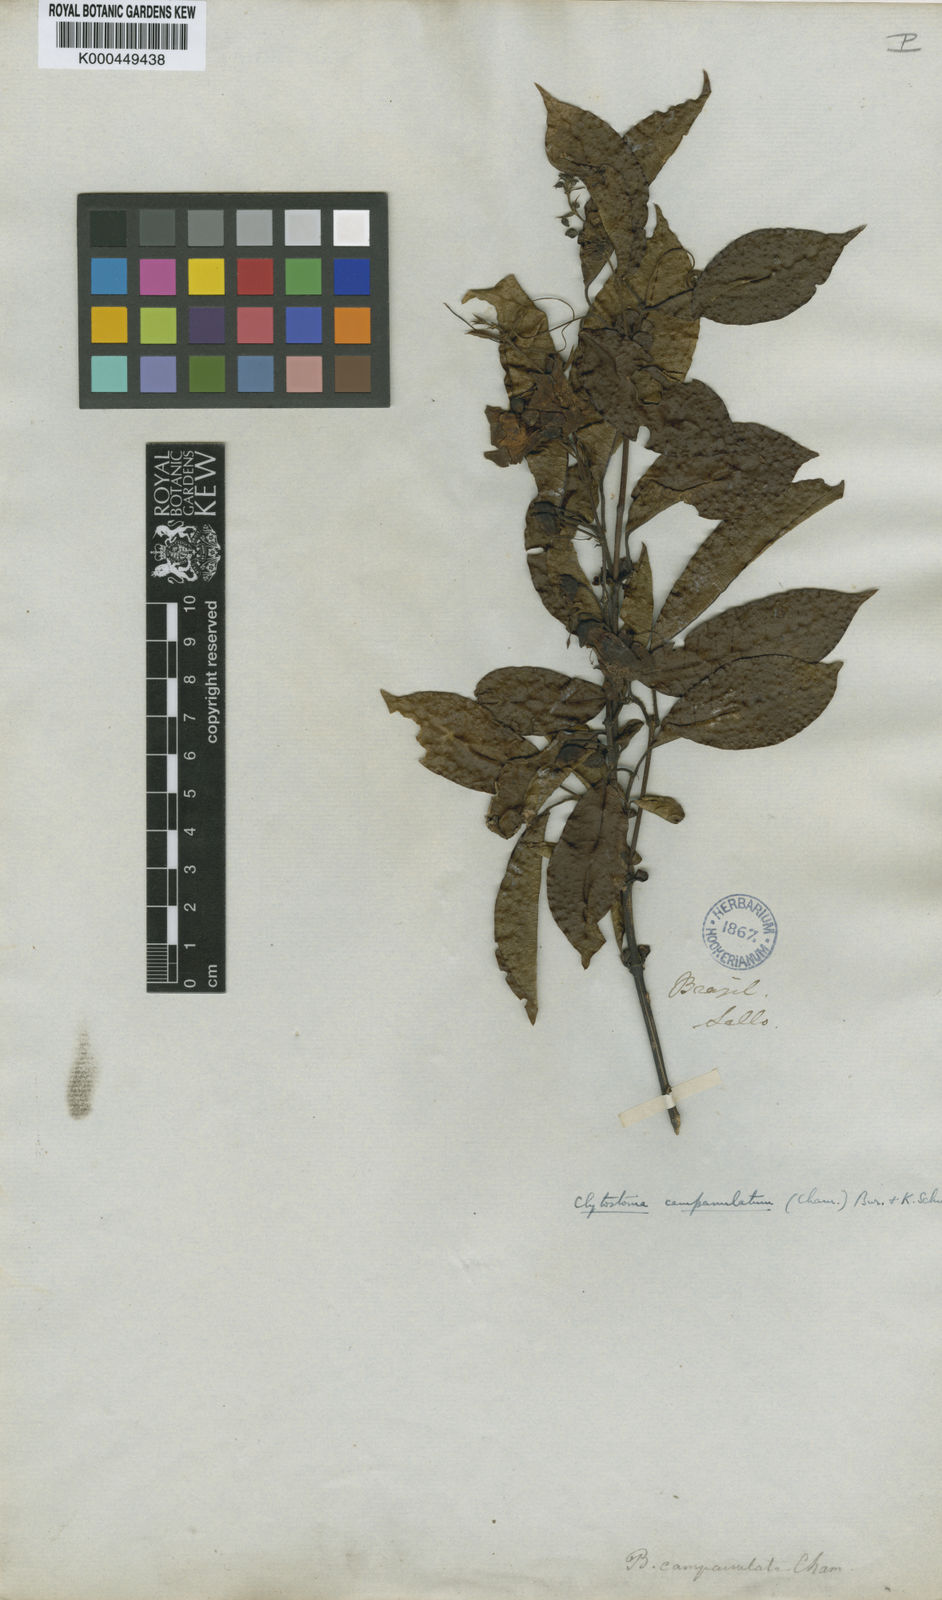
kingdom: Plantae
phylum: Tracheophyta
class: Magnoliopsida
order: Lamiales
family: Bignoniaceae
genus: Bignonia
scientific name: Bignonia campanulata
